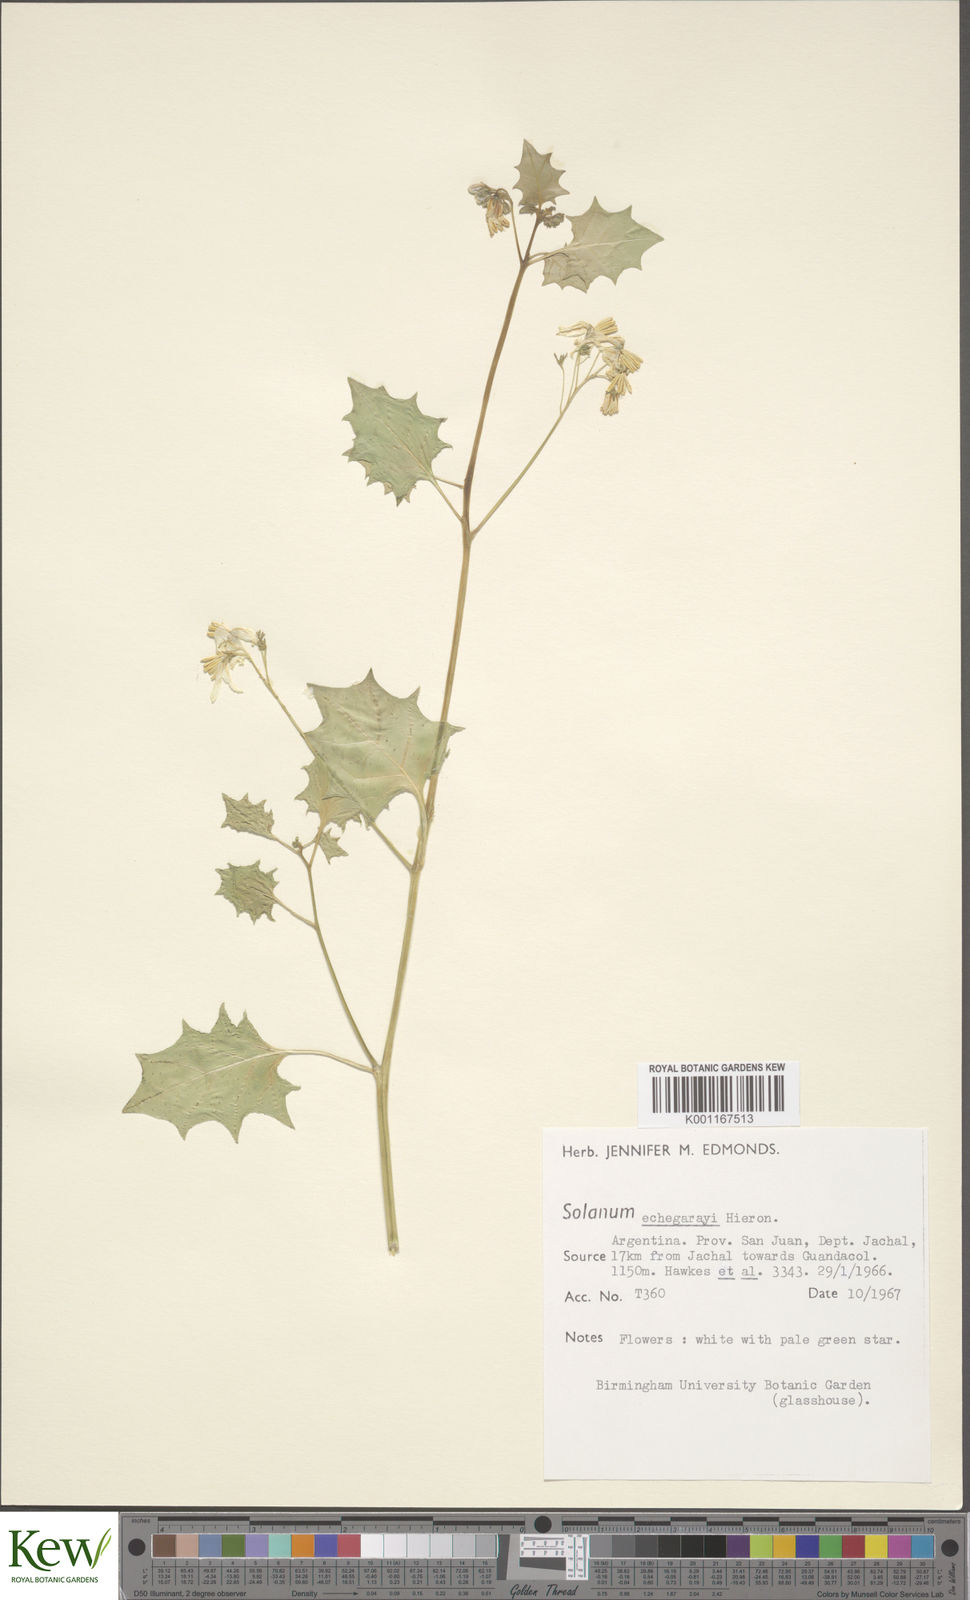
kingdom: Plantae
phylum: Tracheophyta
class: Magnoliopsida
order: Solanales
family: Solanaceae
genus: Solanum
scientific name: Solanum echegarayi
